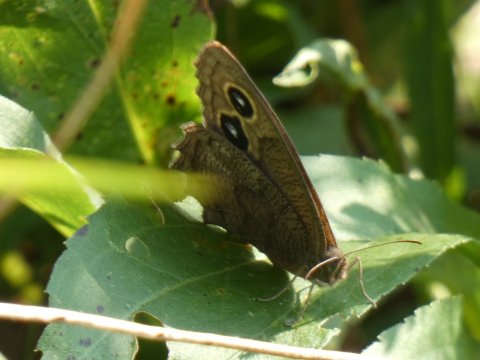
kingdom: Animalia
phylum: Arthropoda
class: Insecta
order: Lepidoptera
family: Nymphalidae
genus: Cercyonis
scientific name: Cercyonis pegala
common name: Common Wood-Nymph
